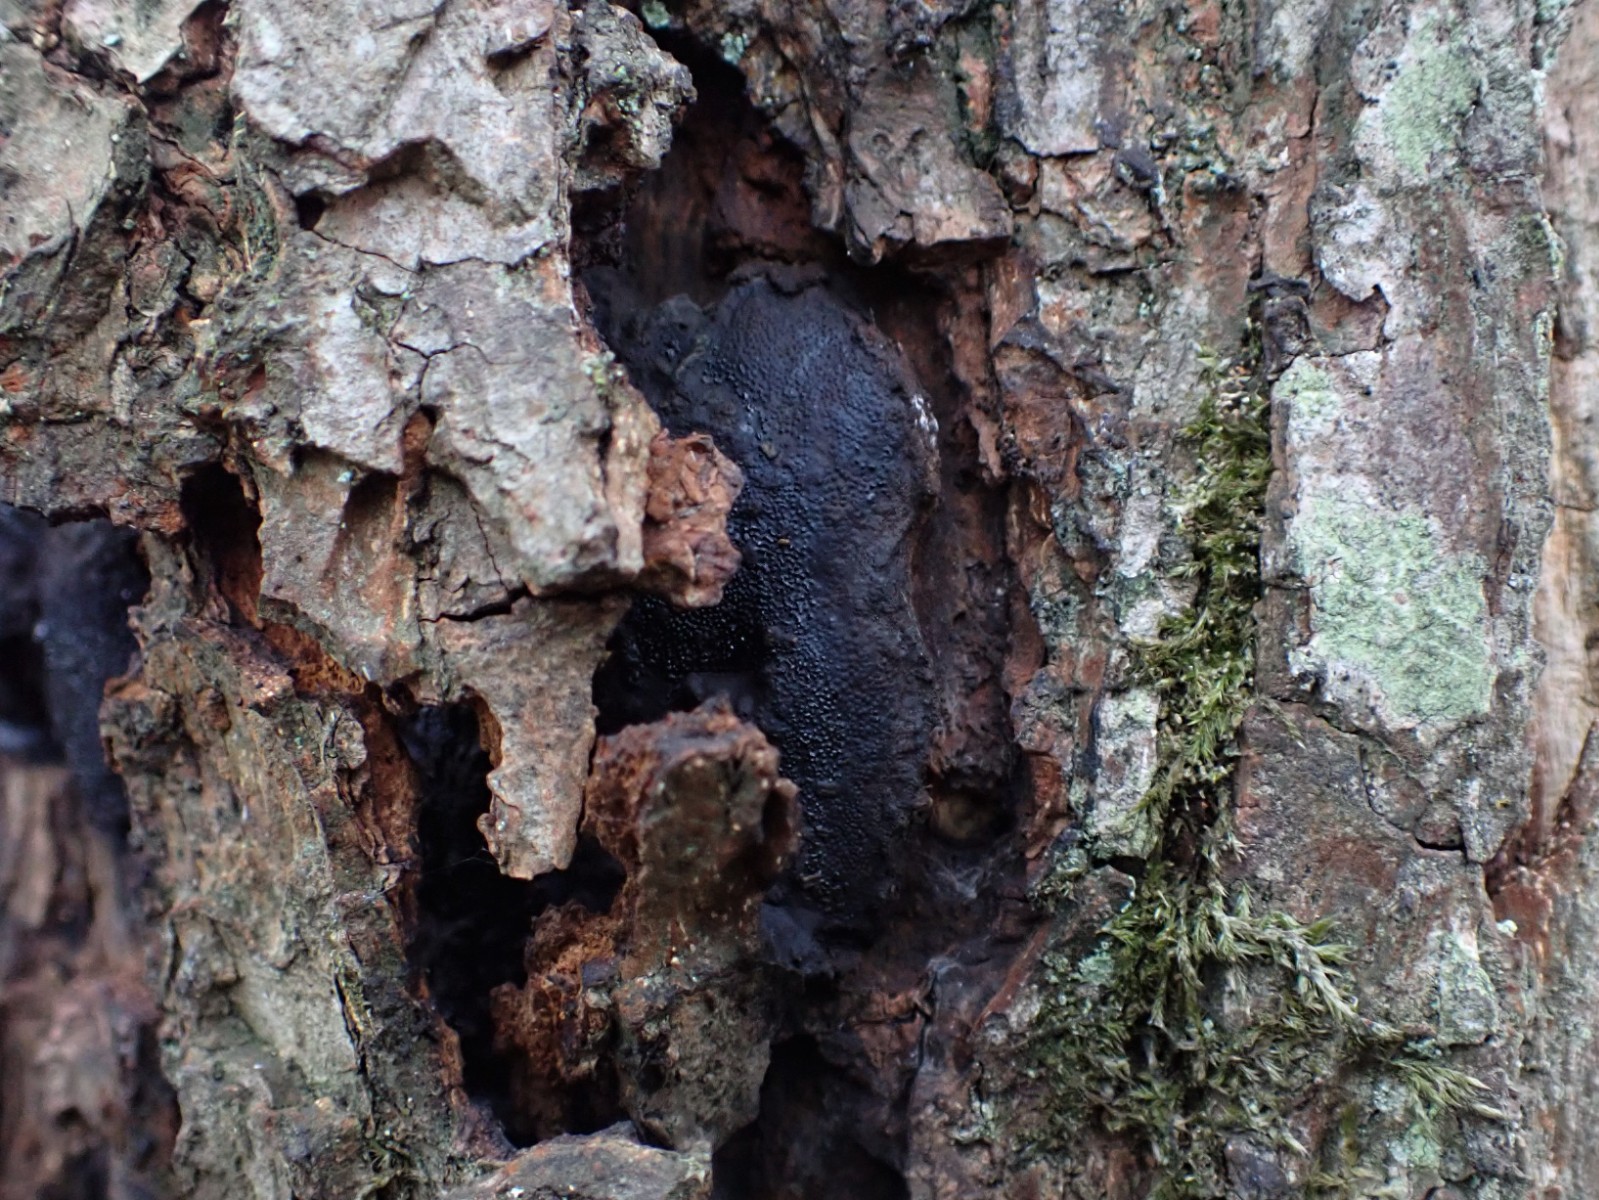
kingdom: Fungi
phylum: Ascomycota
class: Sordariomycetes
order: Boliniales
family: Boliniaceae
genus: Camarops
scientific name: Camarops polysperma
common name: elle-kulsnegl
